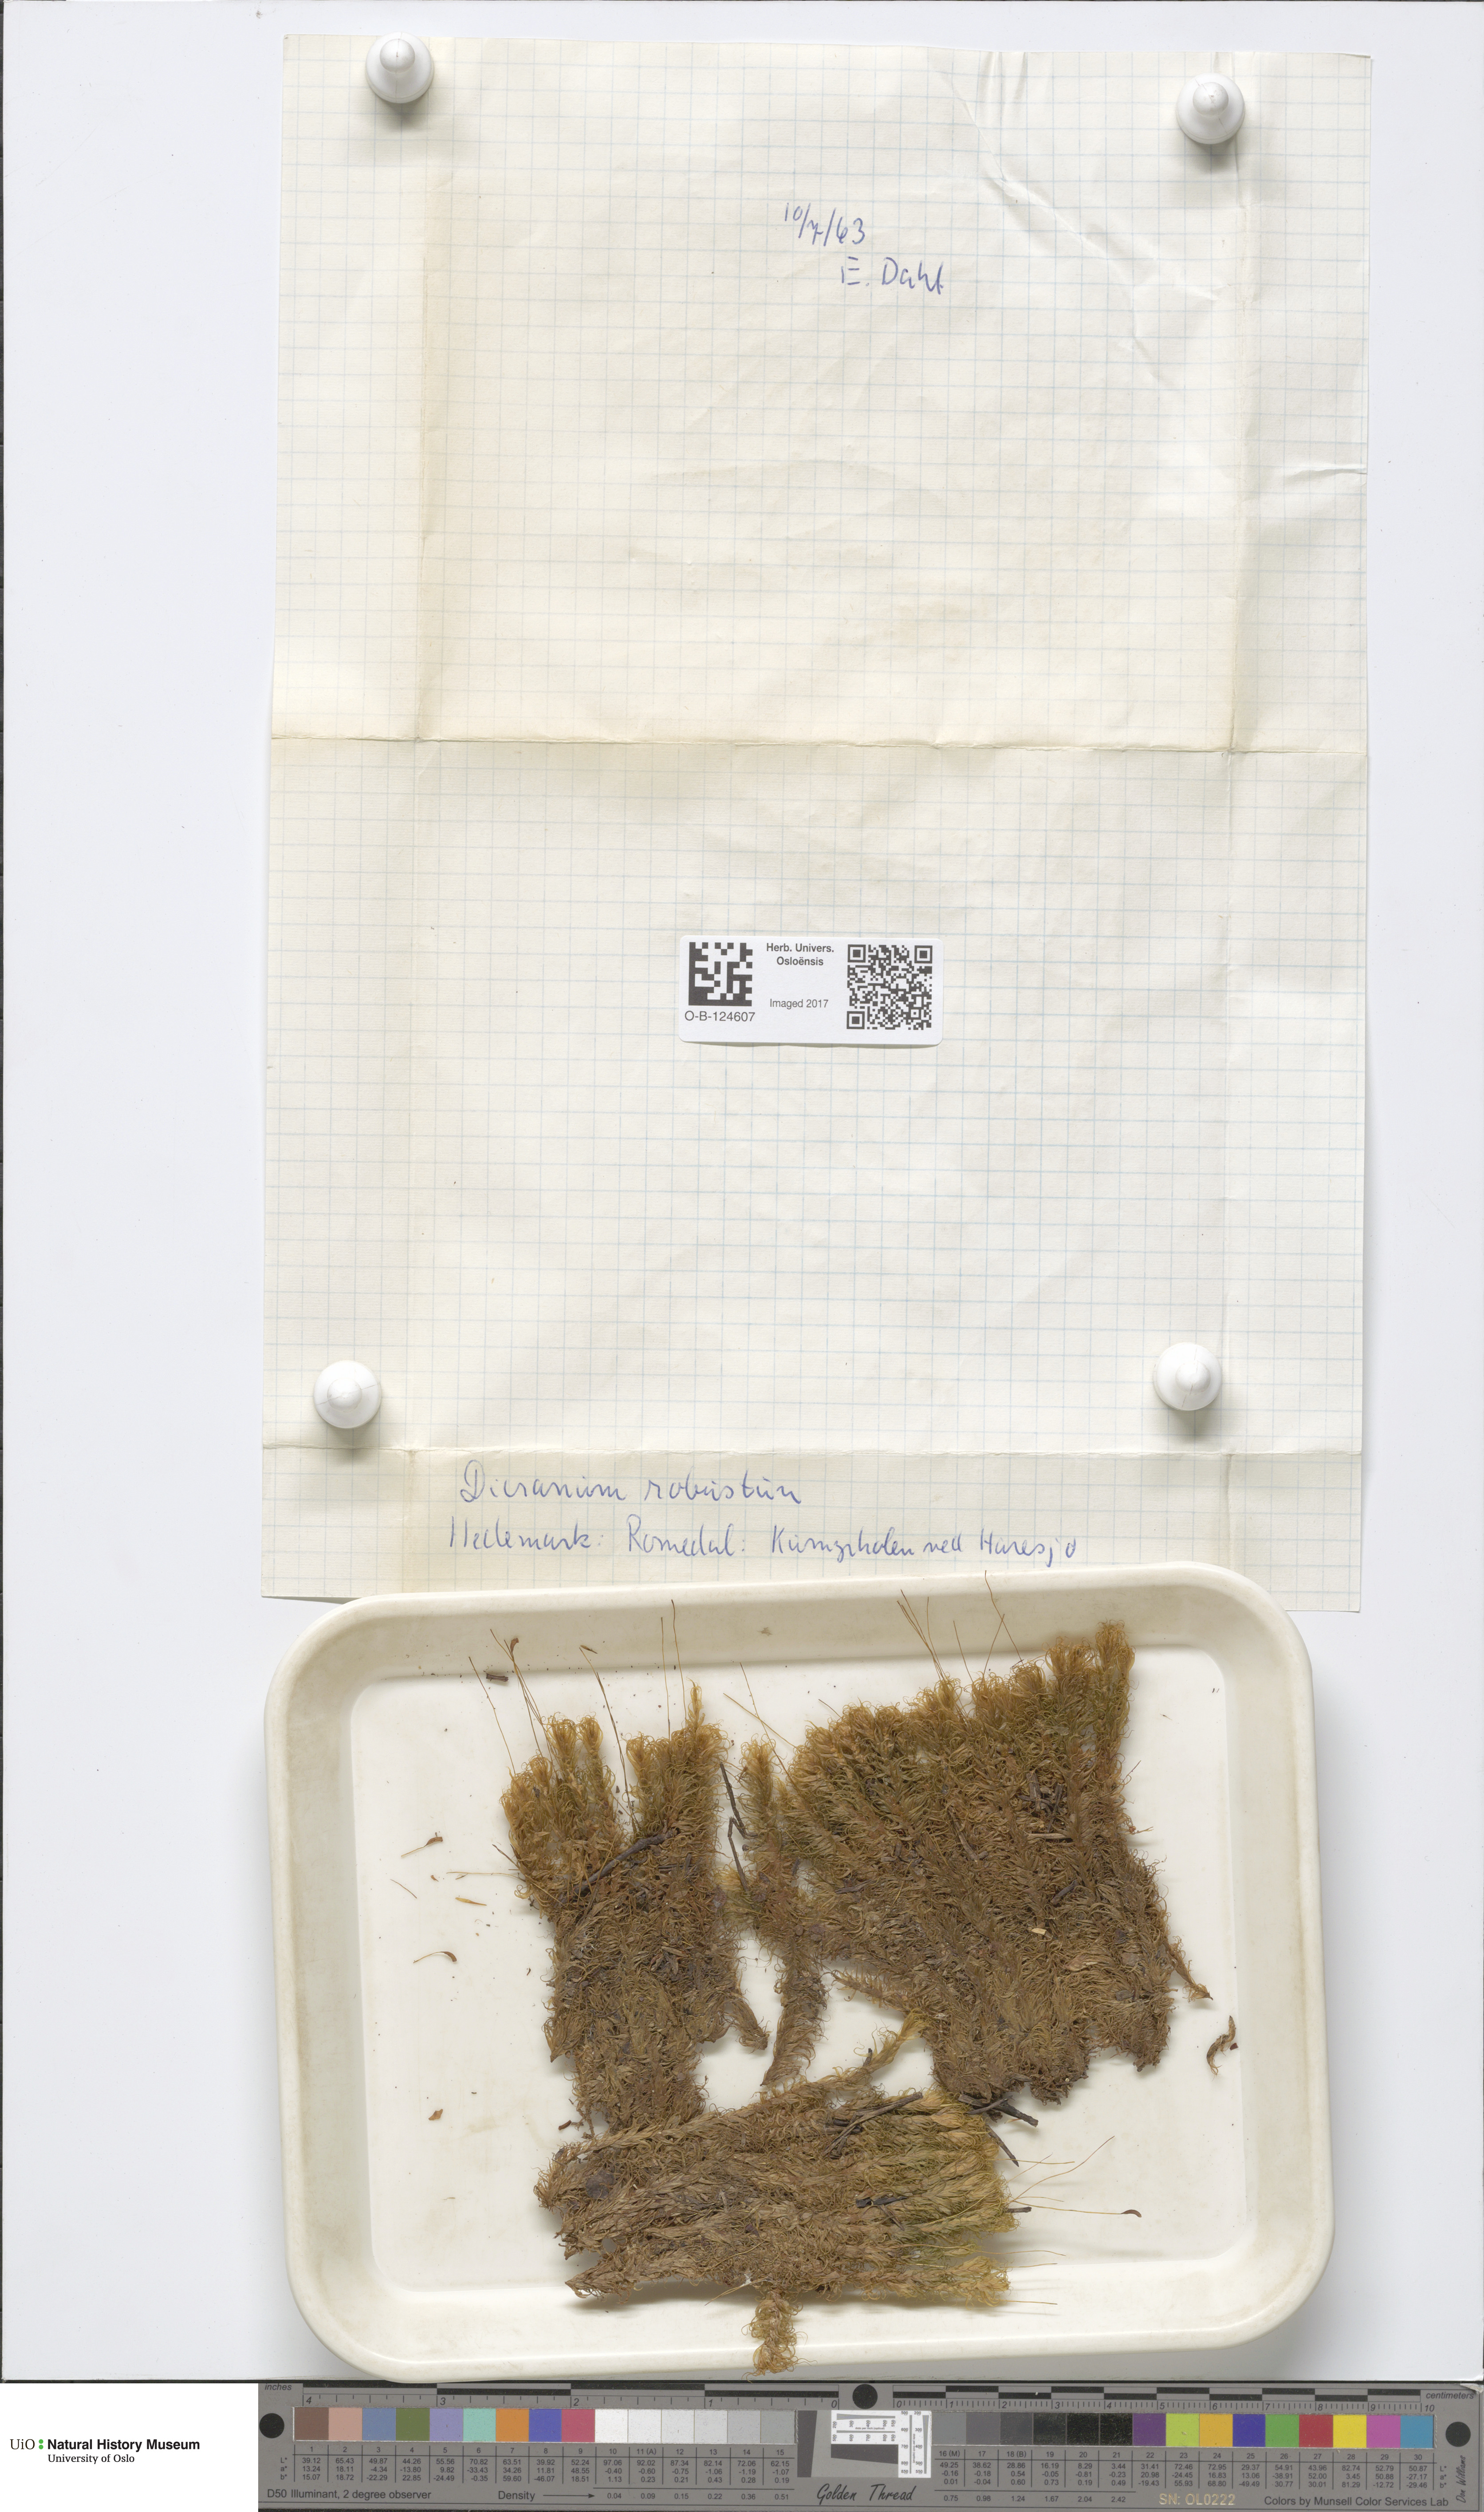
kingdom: Plantae
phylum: Bryophyta
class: Bryopsida
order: Dicranales
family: Dicranaceae
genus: Dicranum
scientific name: Dicranum drummondii
